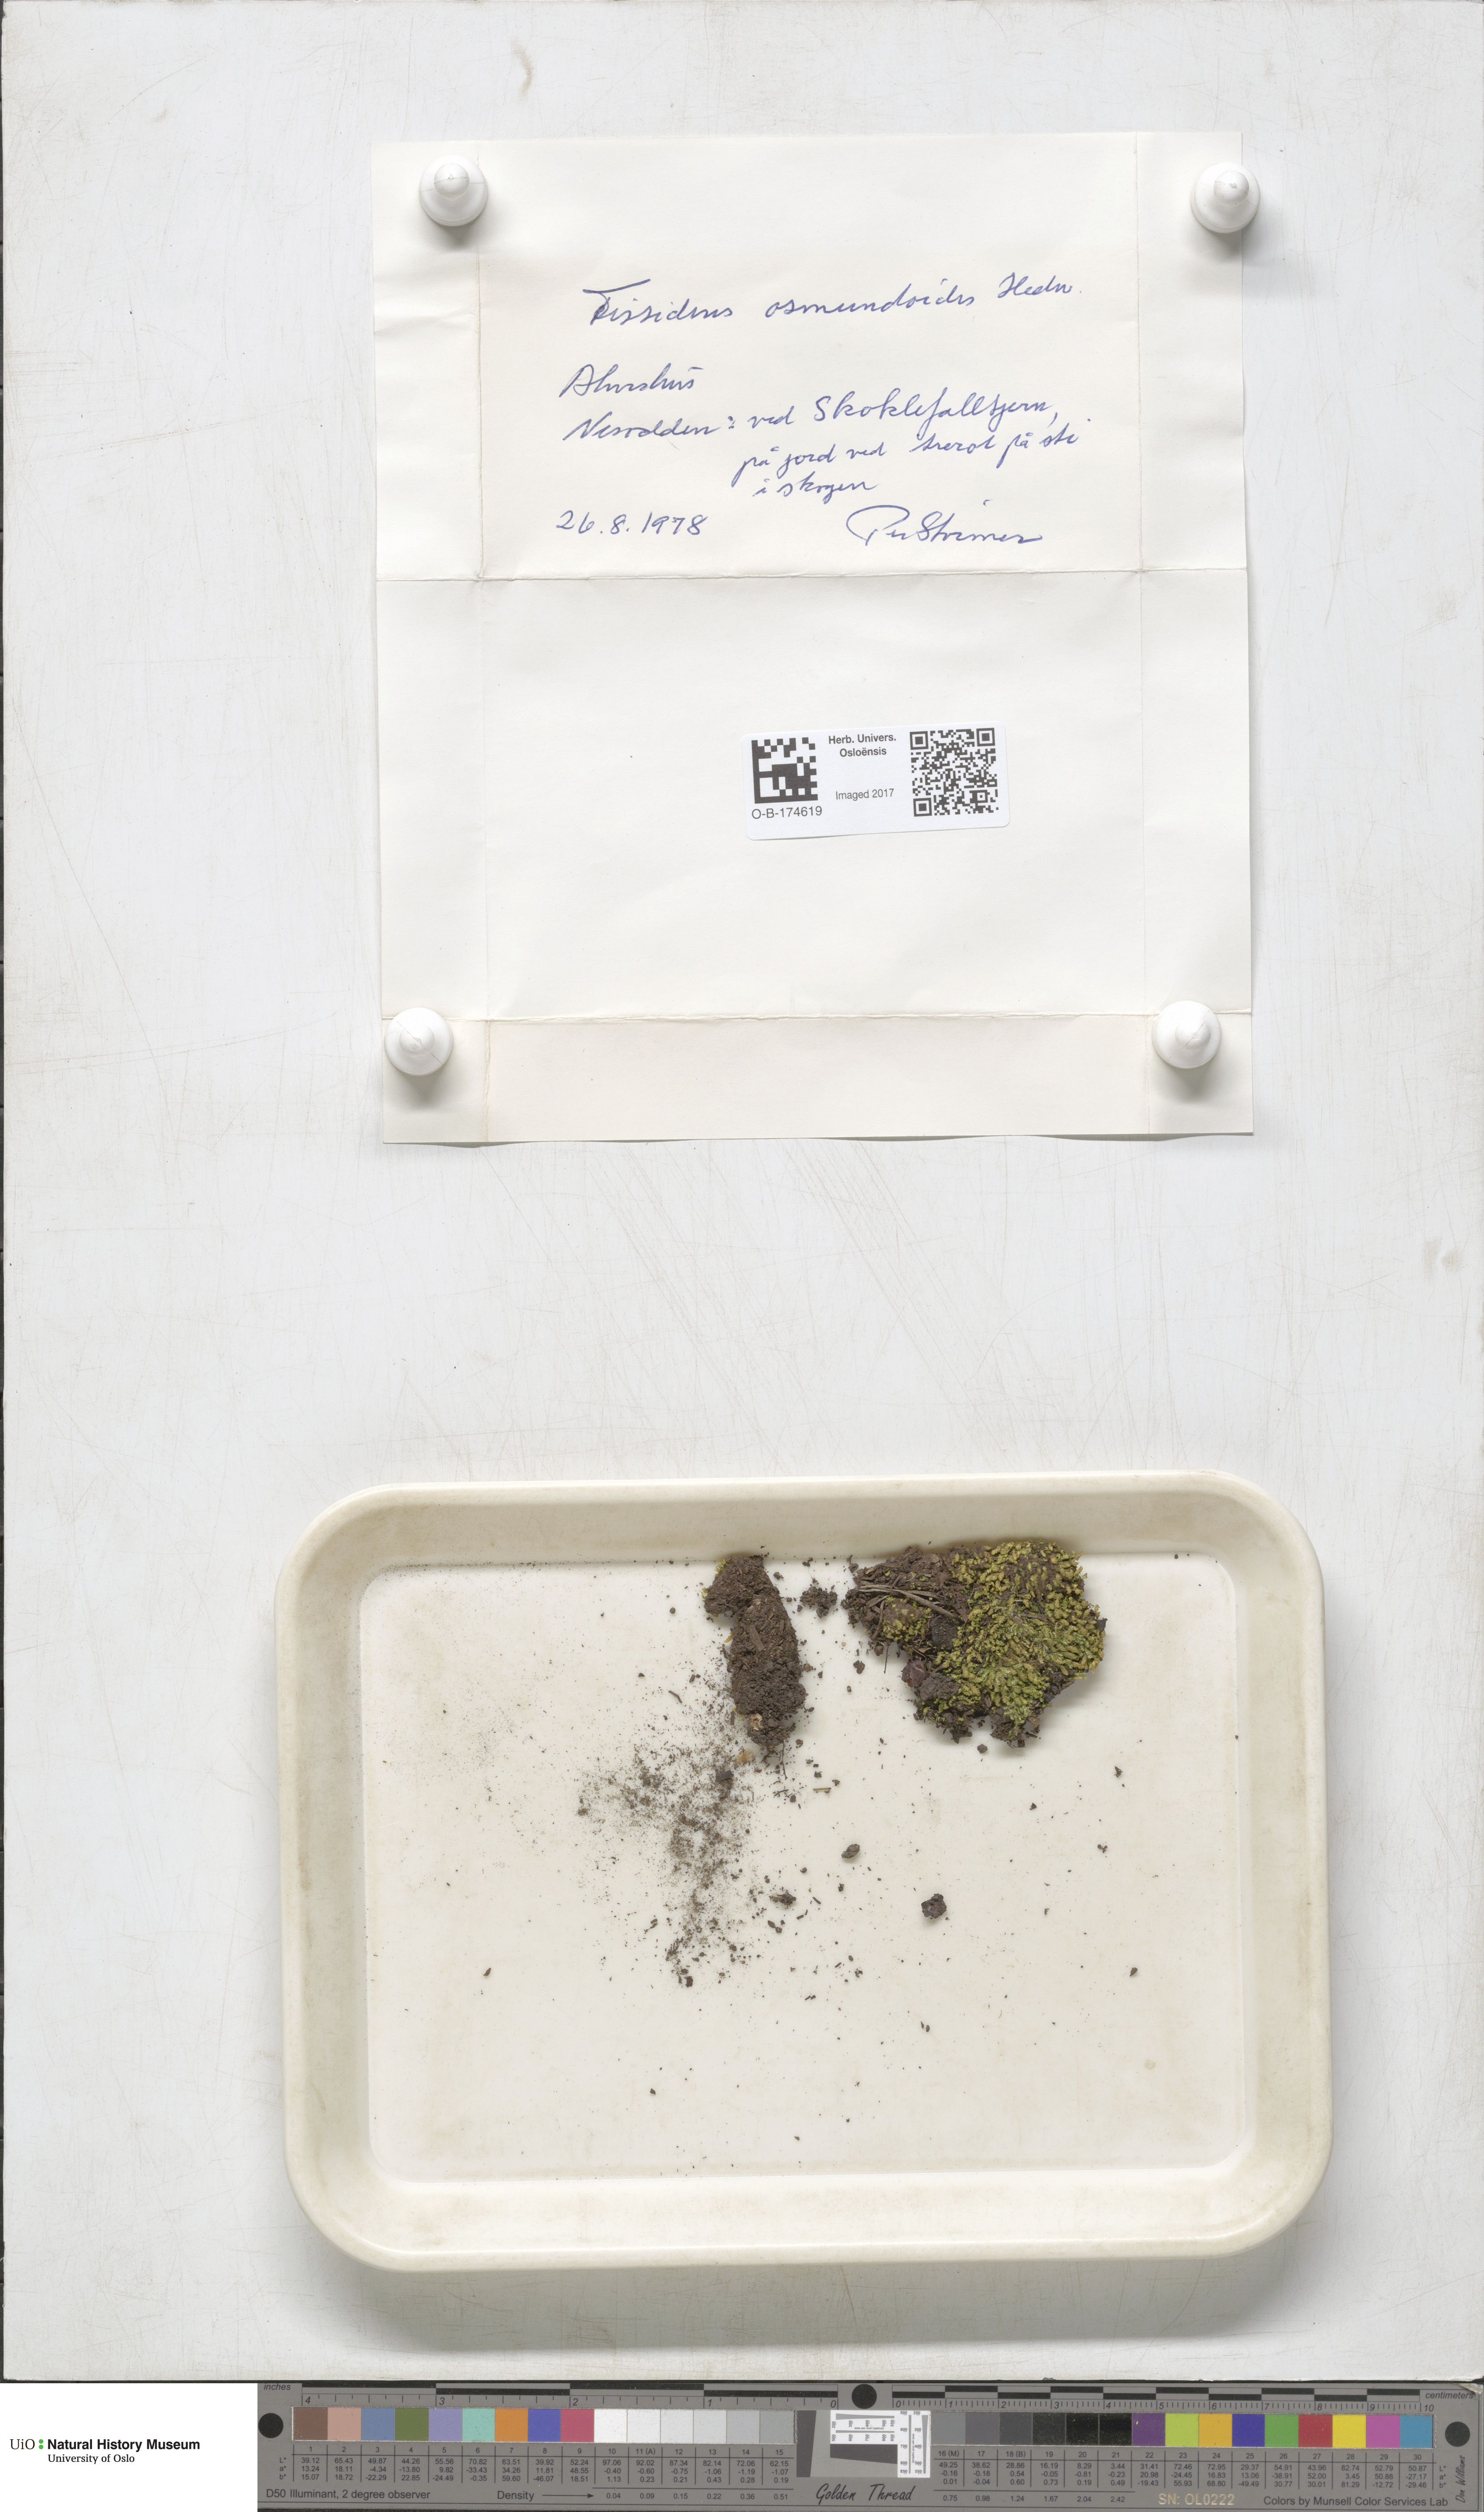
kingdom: Plantae
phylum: Bryophyta
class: Bryopsida
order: Dicranales
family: Fissidentaceae
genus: Fissidens
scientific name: Fissidens osmundoides
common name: Purple-stalked pocket moss
